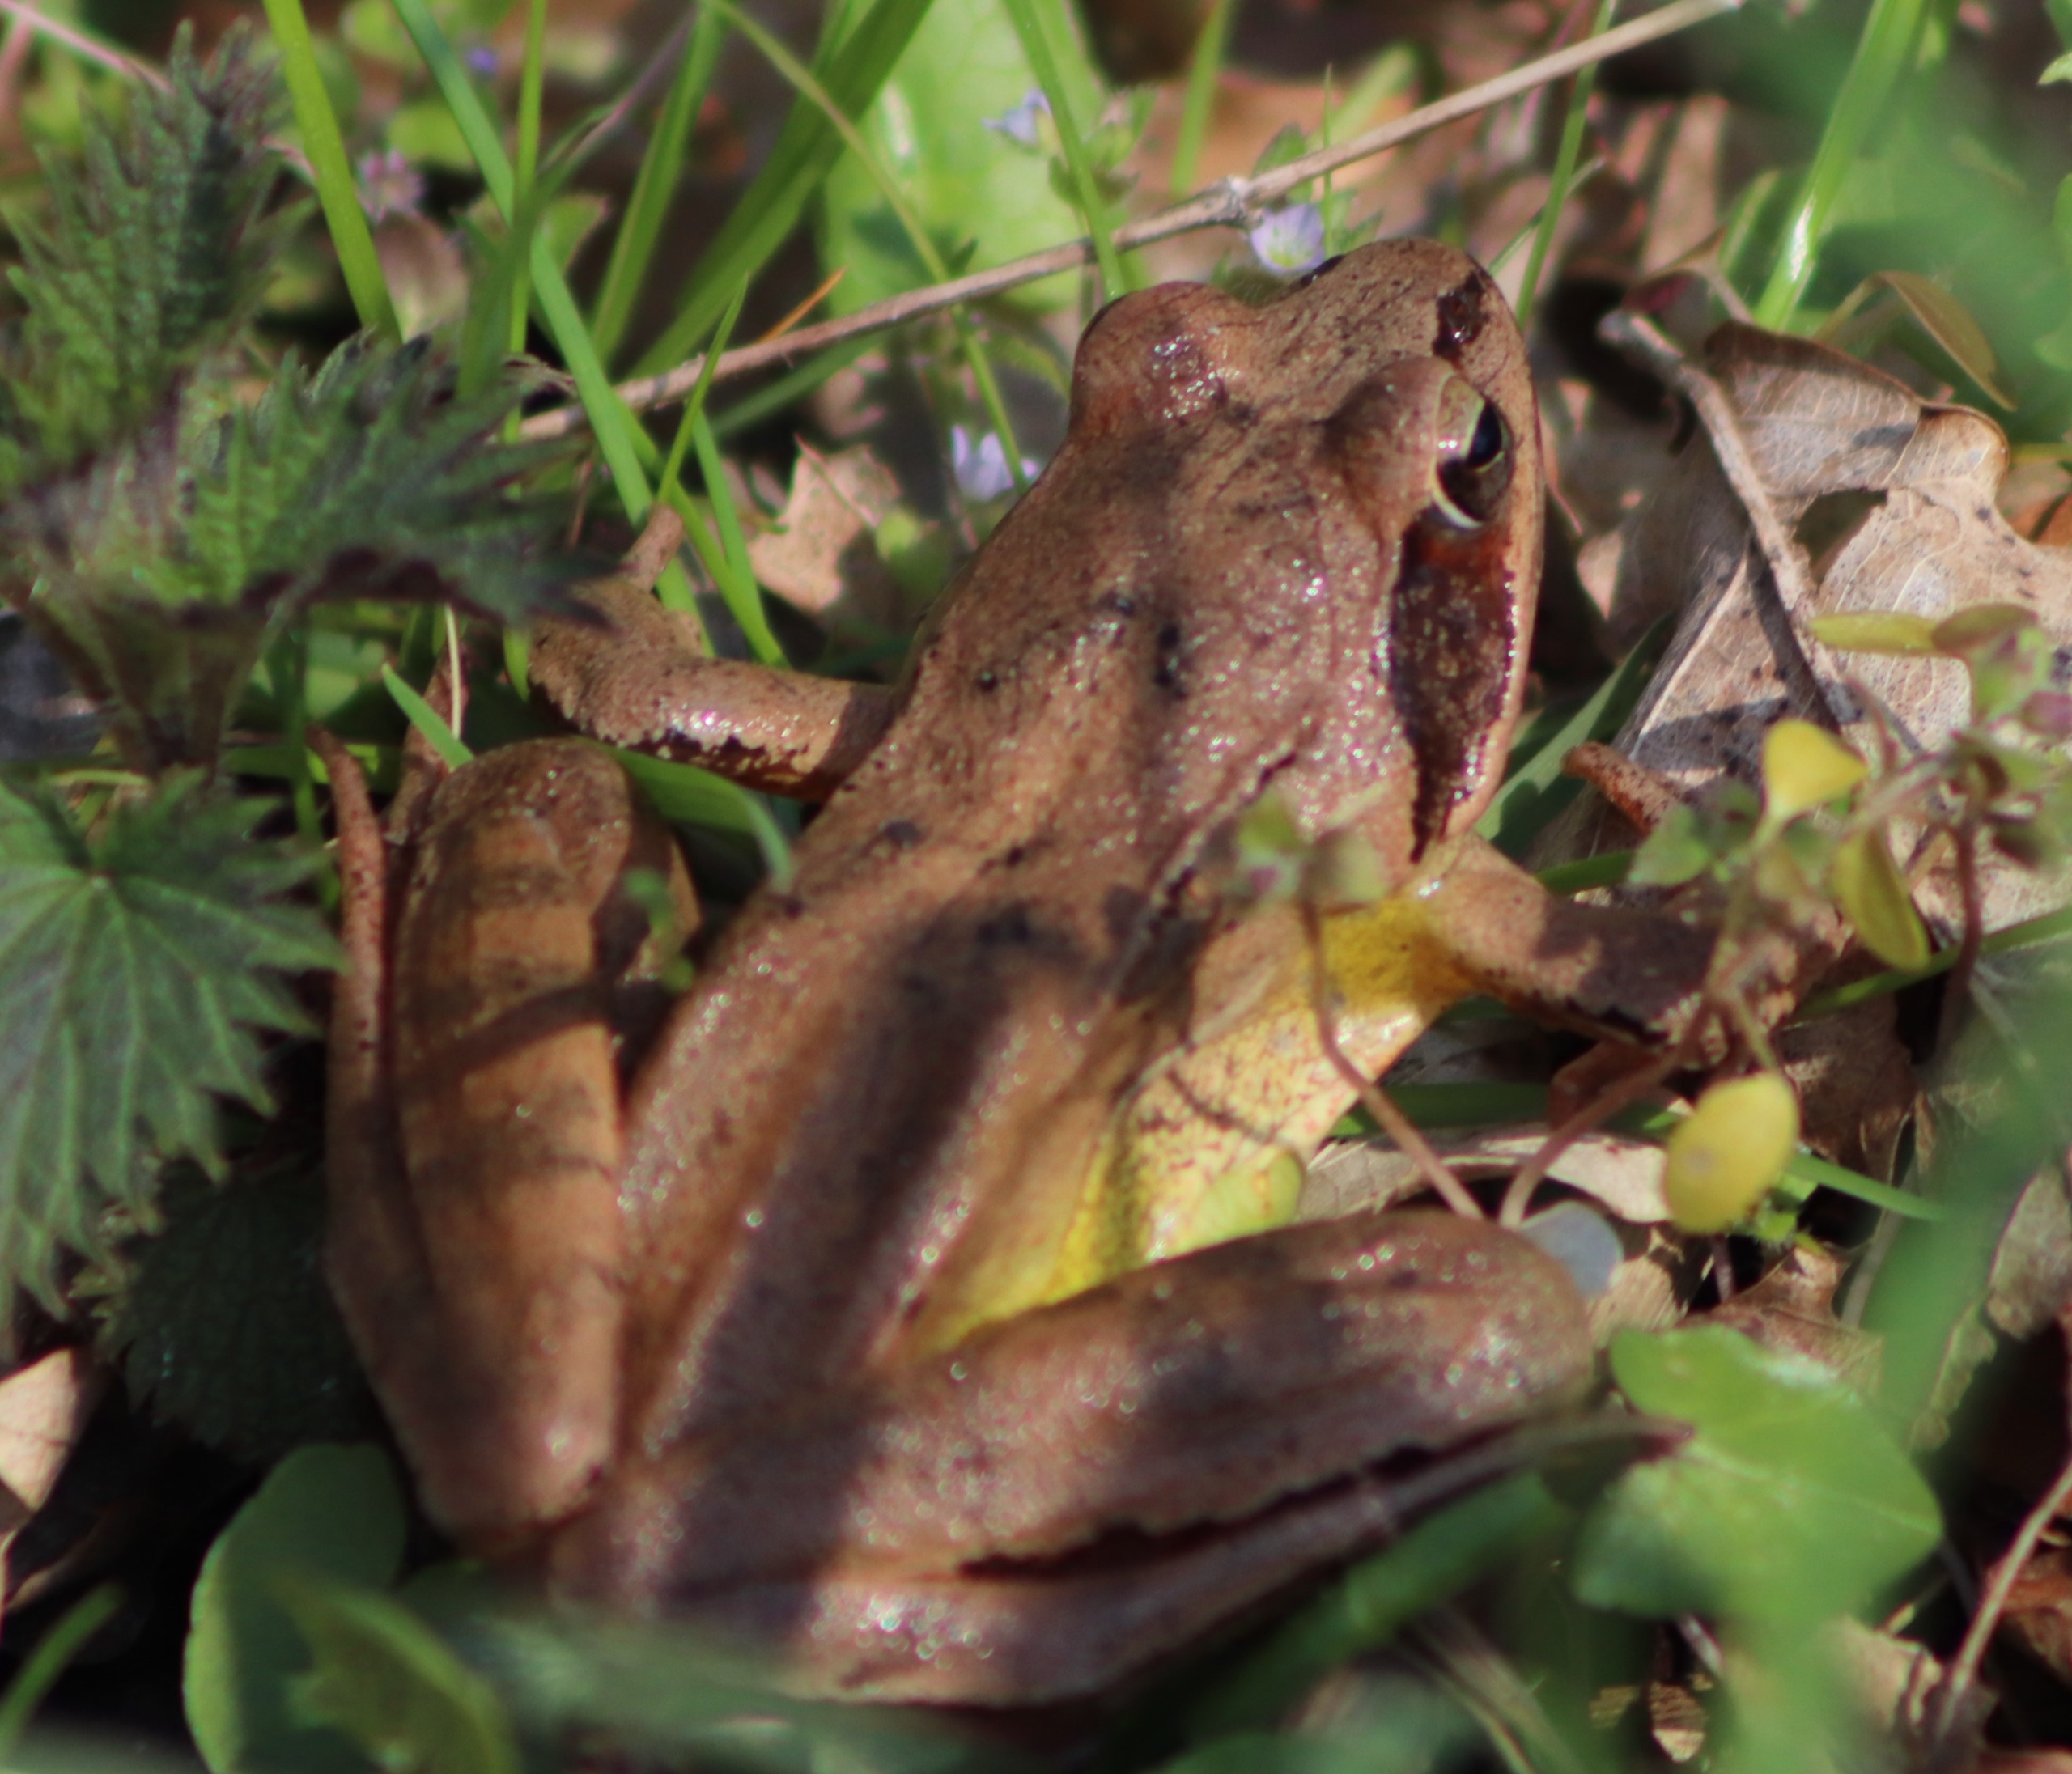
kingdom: Animalia
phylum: Chordata
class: Amphibia
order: Anura
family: Ranidae
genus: Rana
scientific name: Rana dalmatina
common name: Springfrø
